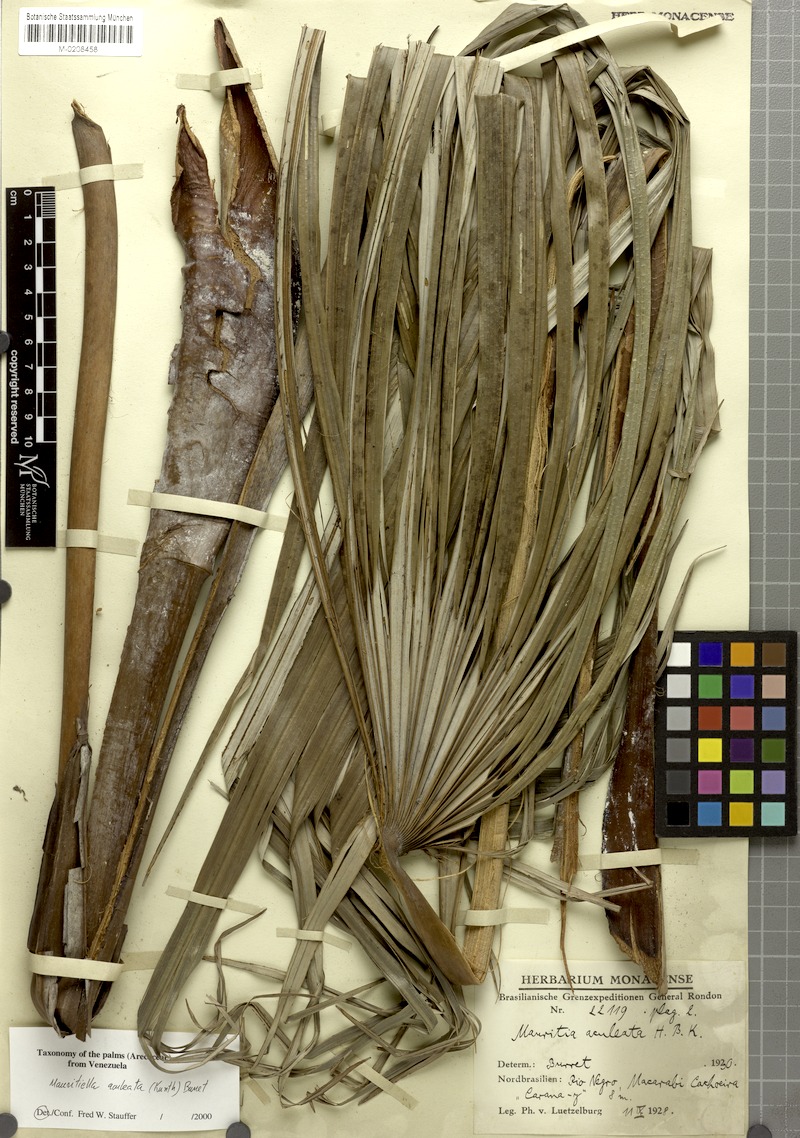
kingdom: Plantae
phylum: Tracheophyta
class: Liliopsida
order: Arecales
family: Arecaceae
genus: Mauritiella
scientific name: Mauritiella aculeata
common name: Buritirana
